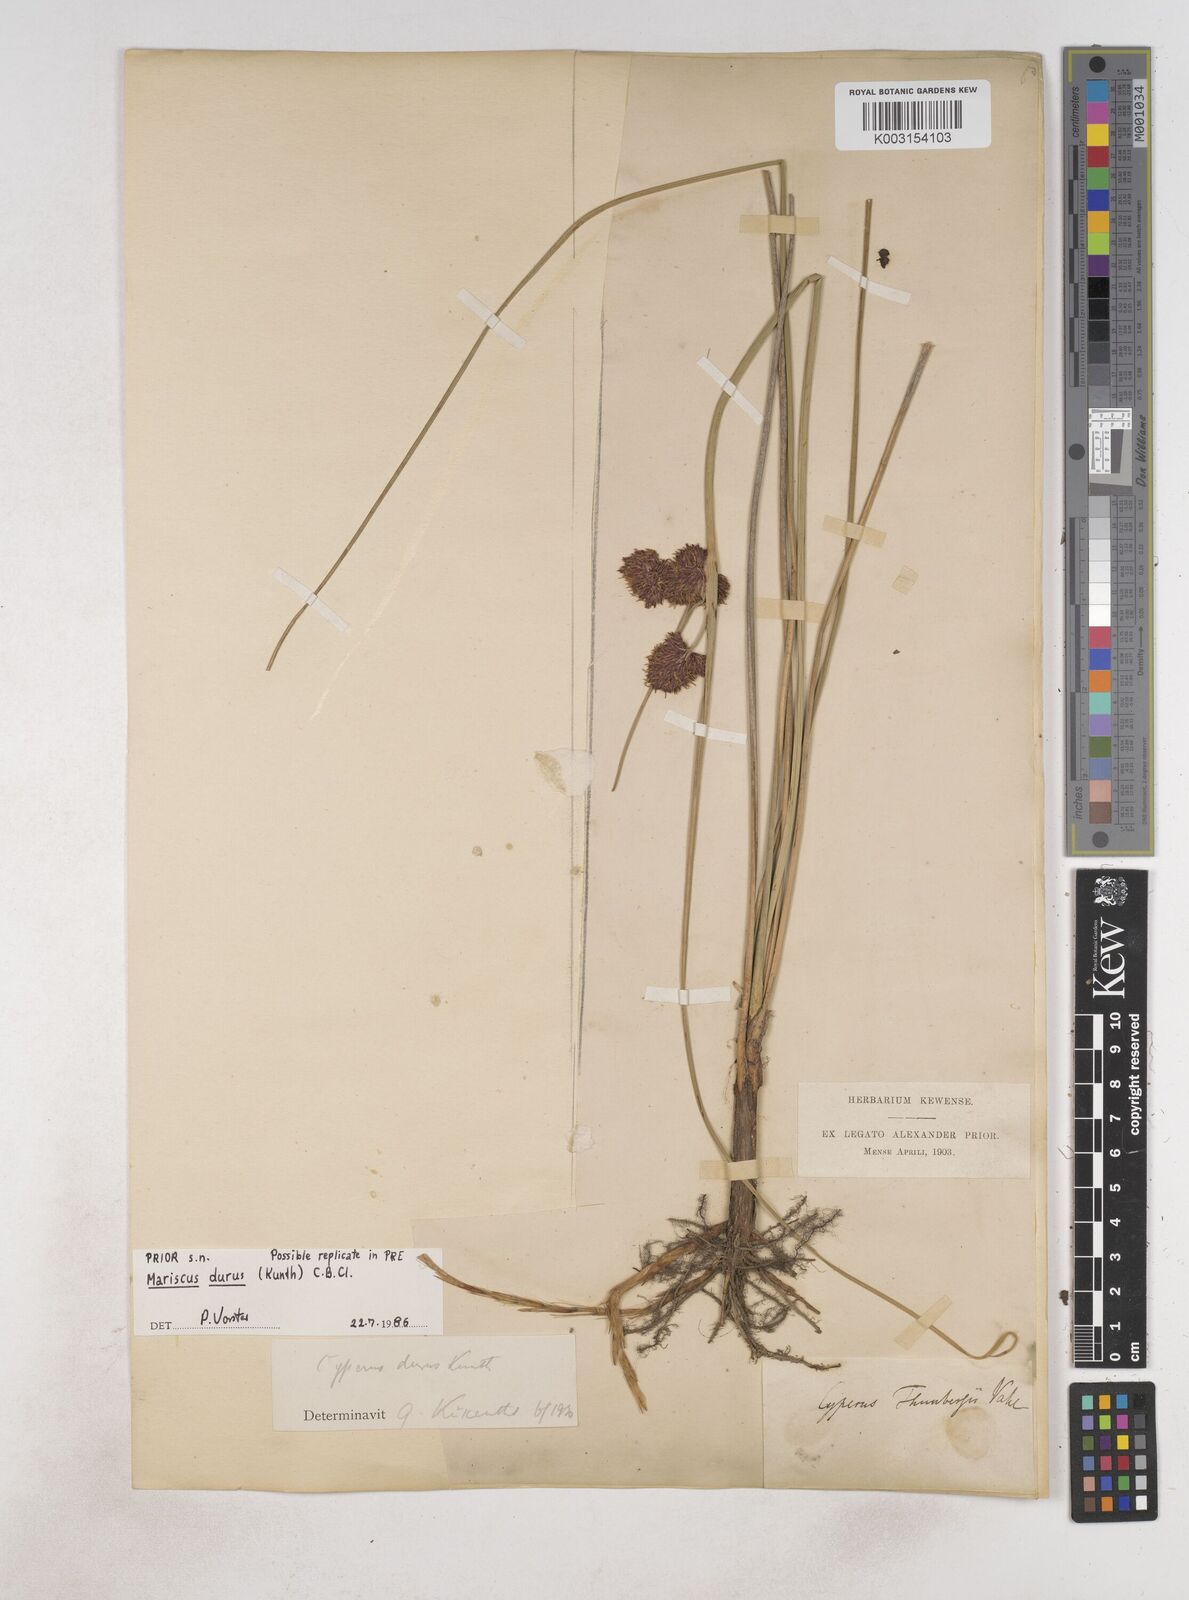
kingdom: Plantae
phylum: Tracheophyta
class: Liliopsida
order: Poales
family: Cyperaceae
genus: Cyperus
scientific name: Cyperus durus
